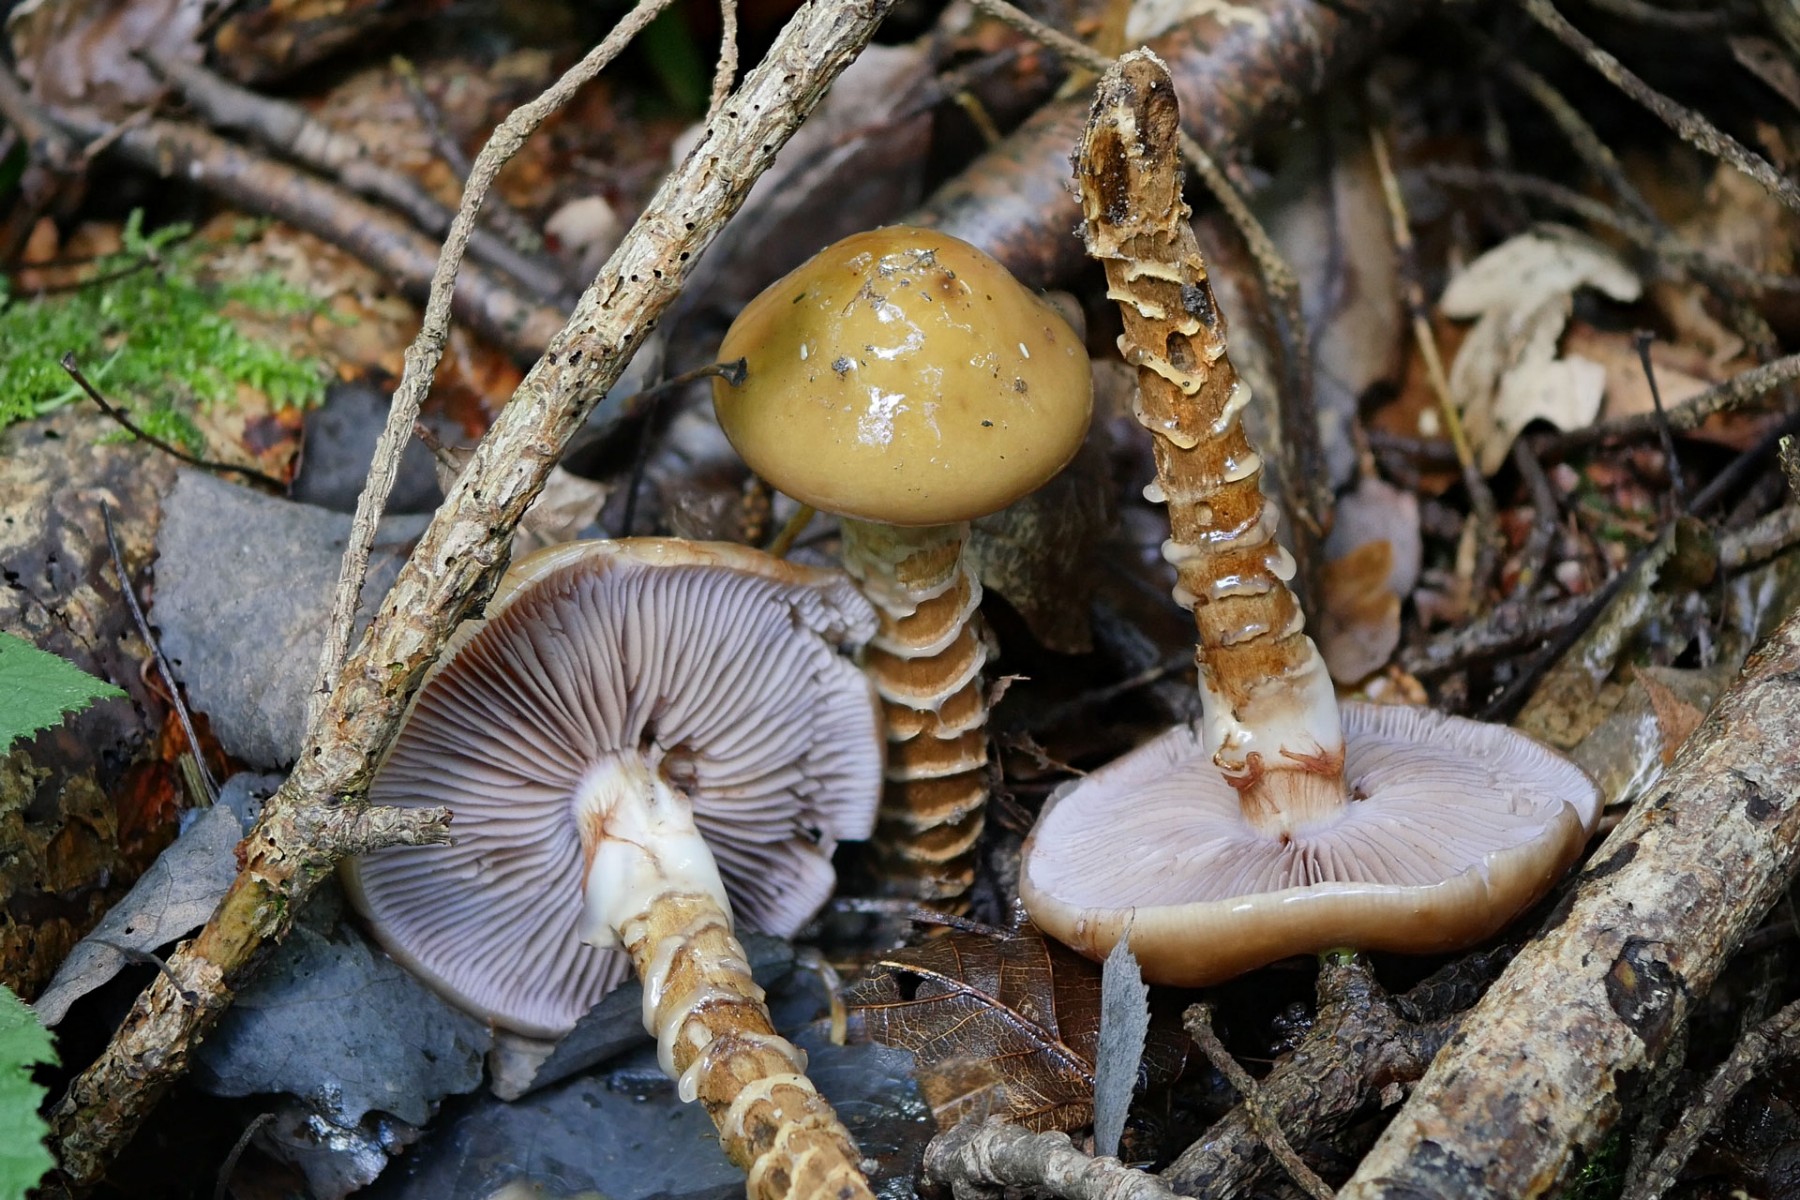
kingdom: Fungi
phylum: Basidiomycota
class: Agaricomycetes
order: Agaricales
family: Cortinariaceae
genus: Cortinarius
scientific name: Cortinarius trivialis
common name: brunslimet slørhat
